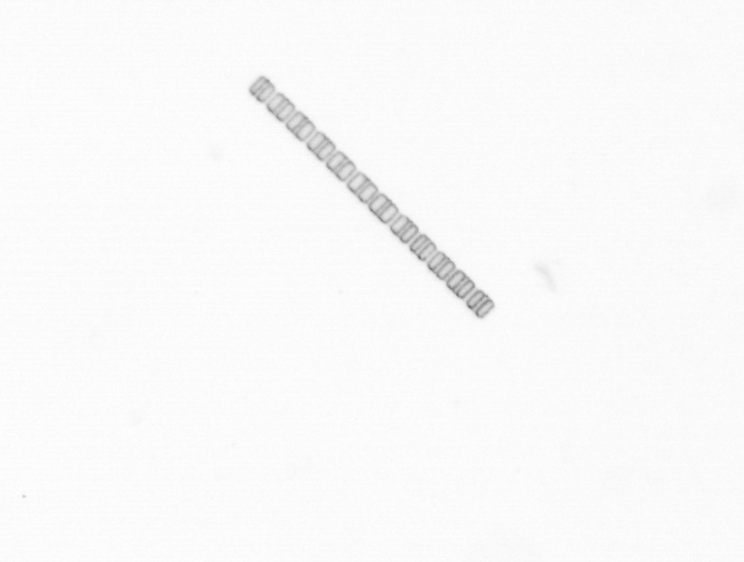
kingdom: Chromista
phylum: Ochrophyta
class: Bacillariophyceae
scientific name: Bacillariophyceae
